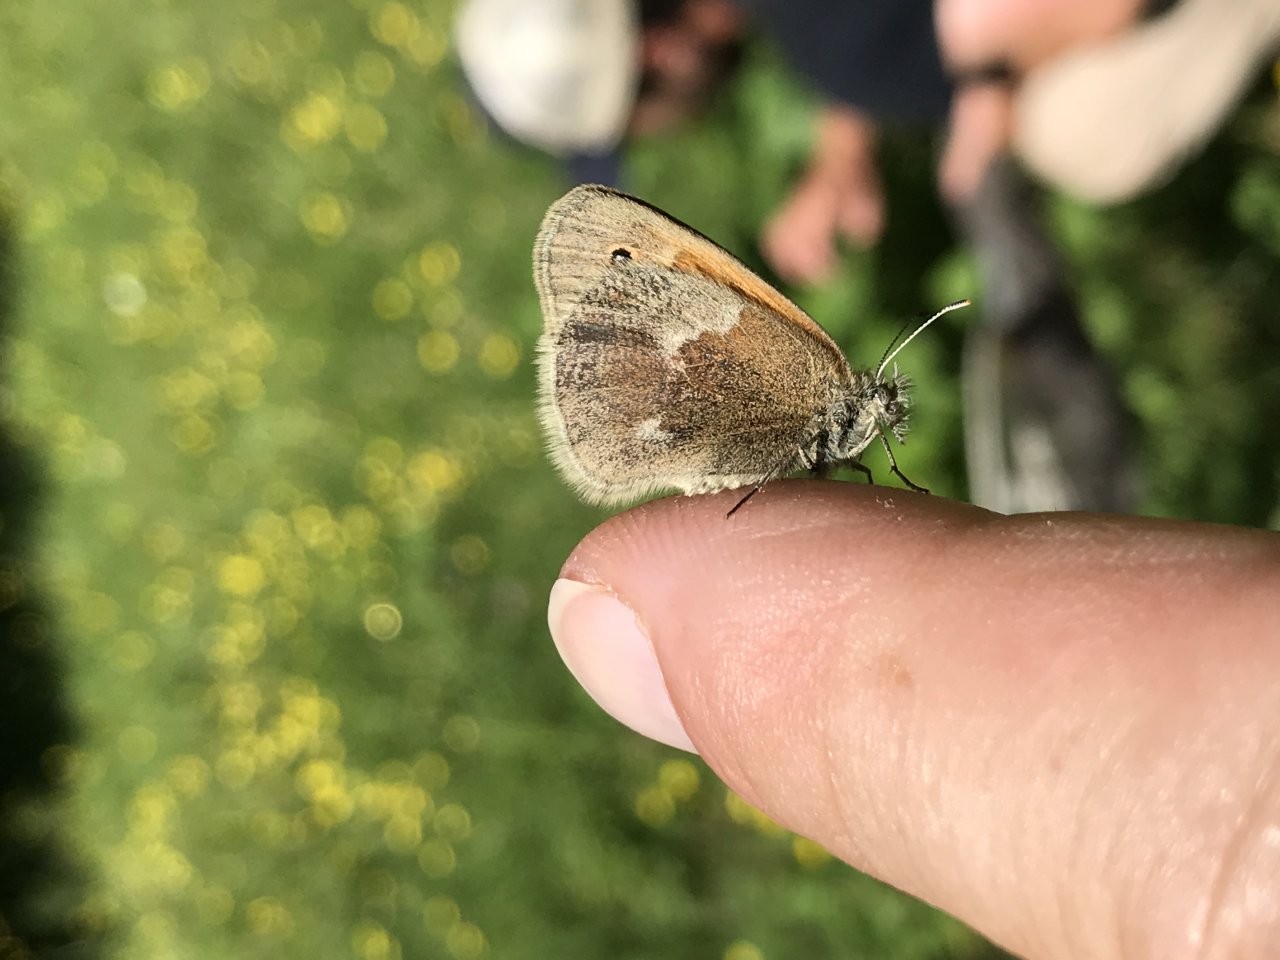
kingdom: Animalia
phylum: Arthropoda
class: Insecta
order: Lepidoptera
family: Nymphalidae
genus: Coenonympha
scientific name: Coenonympha tullia
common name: Large Heath
